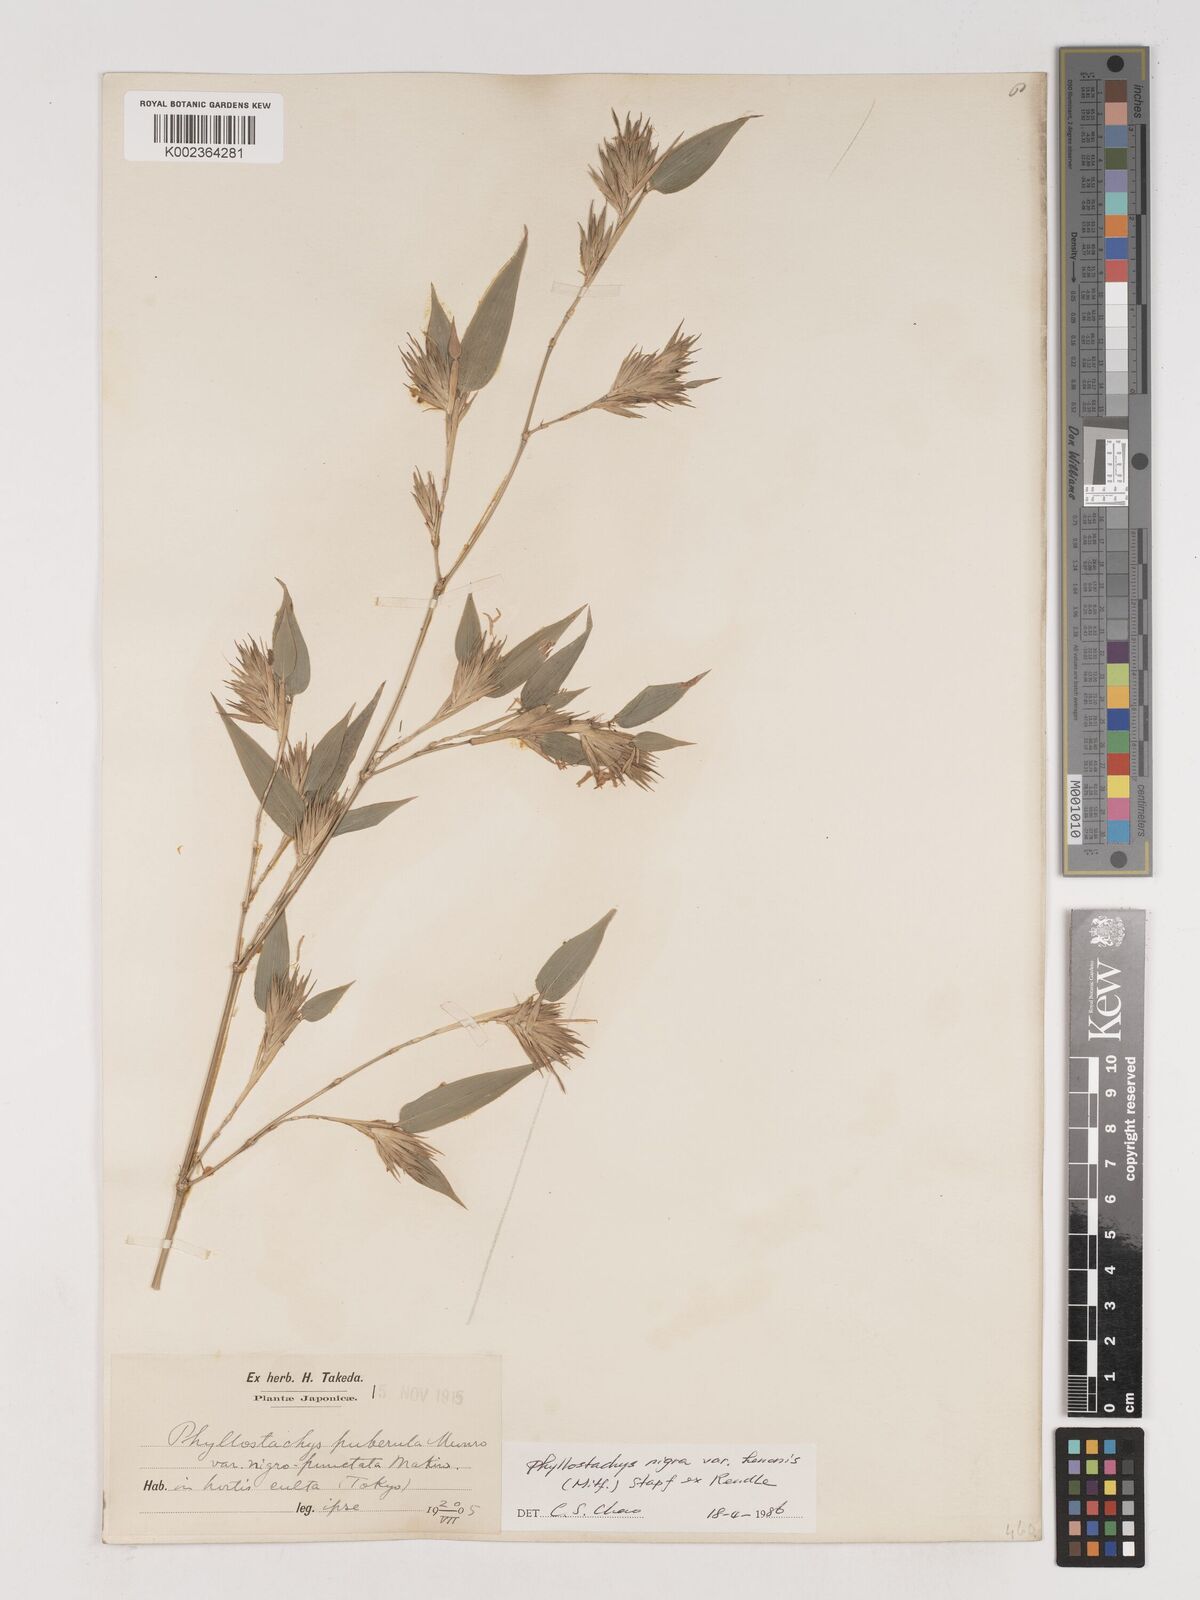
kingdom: Plantae
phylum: Tracheophyta
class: Liliopsida
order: Poales
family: Poaceae
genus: Phyllostachys
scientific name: Phyllostachys nigra
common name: Black bamboo
